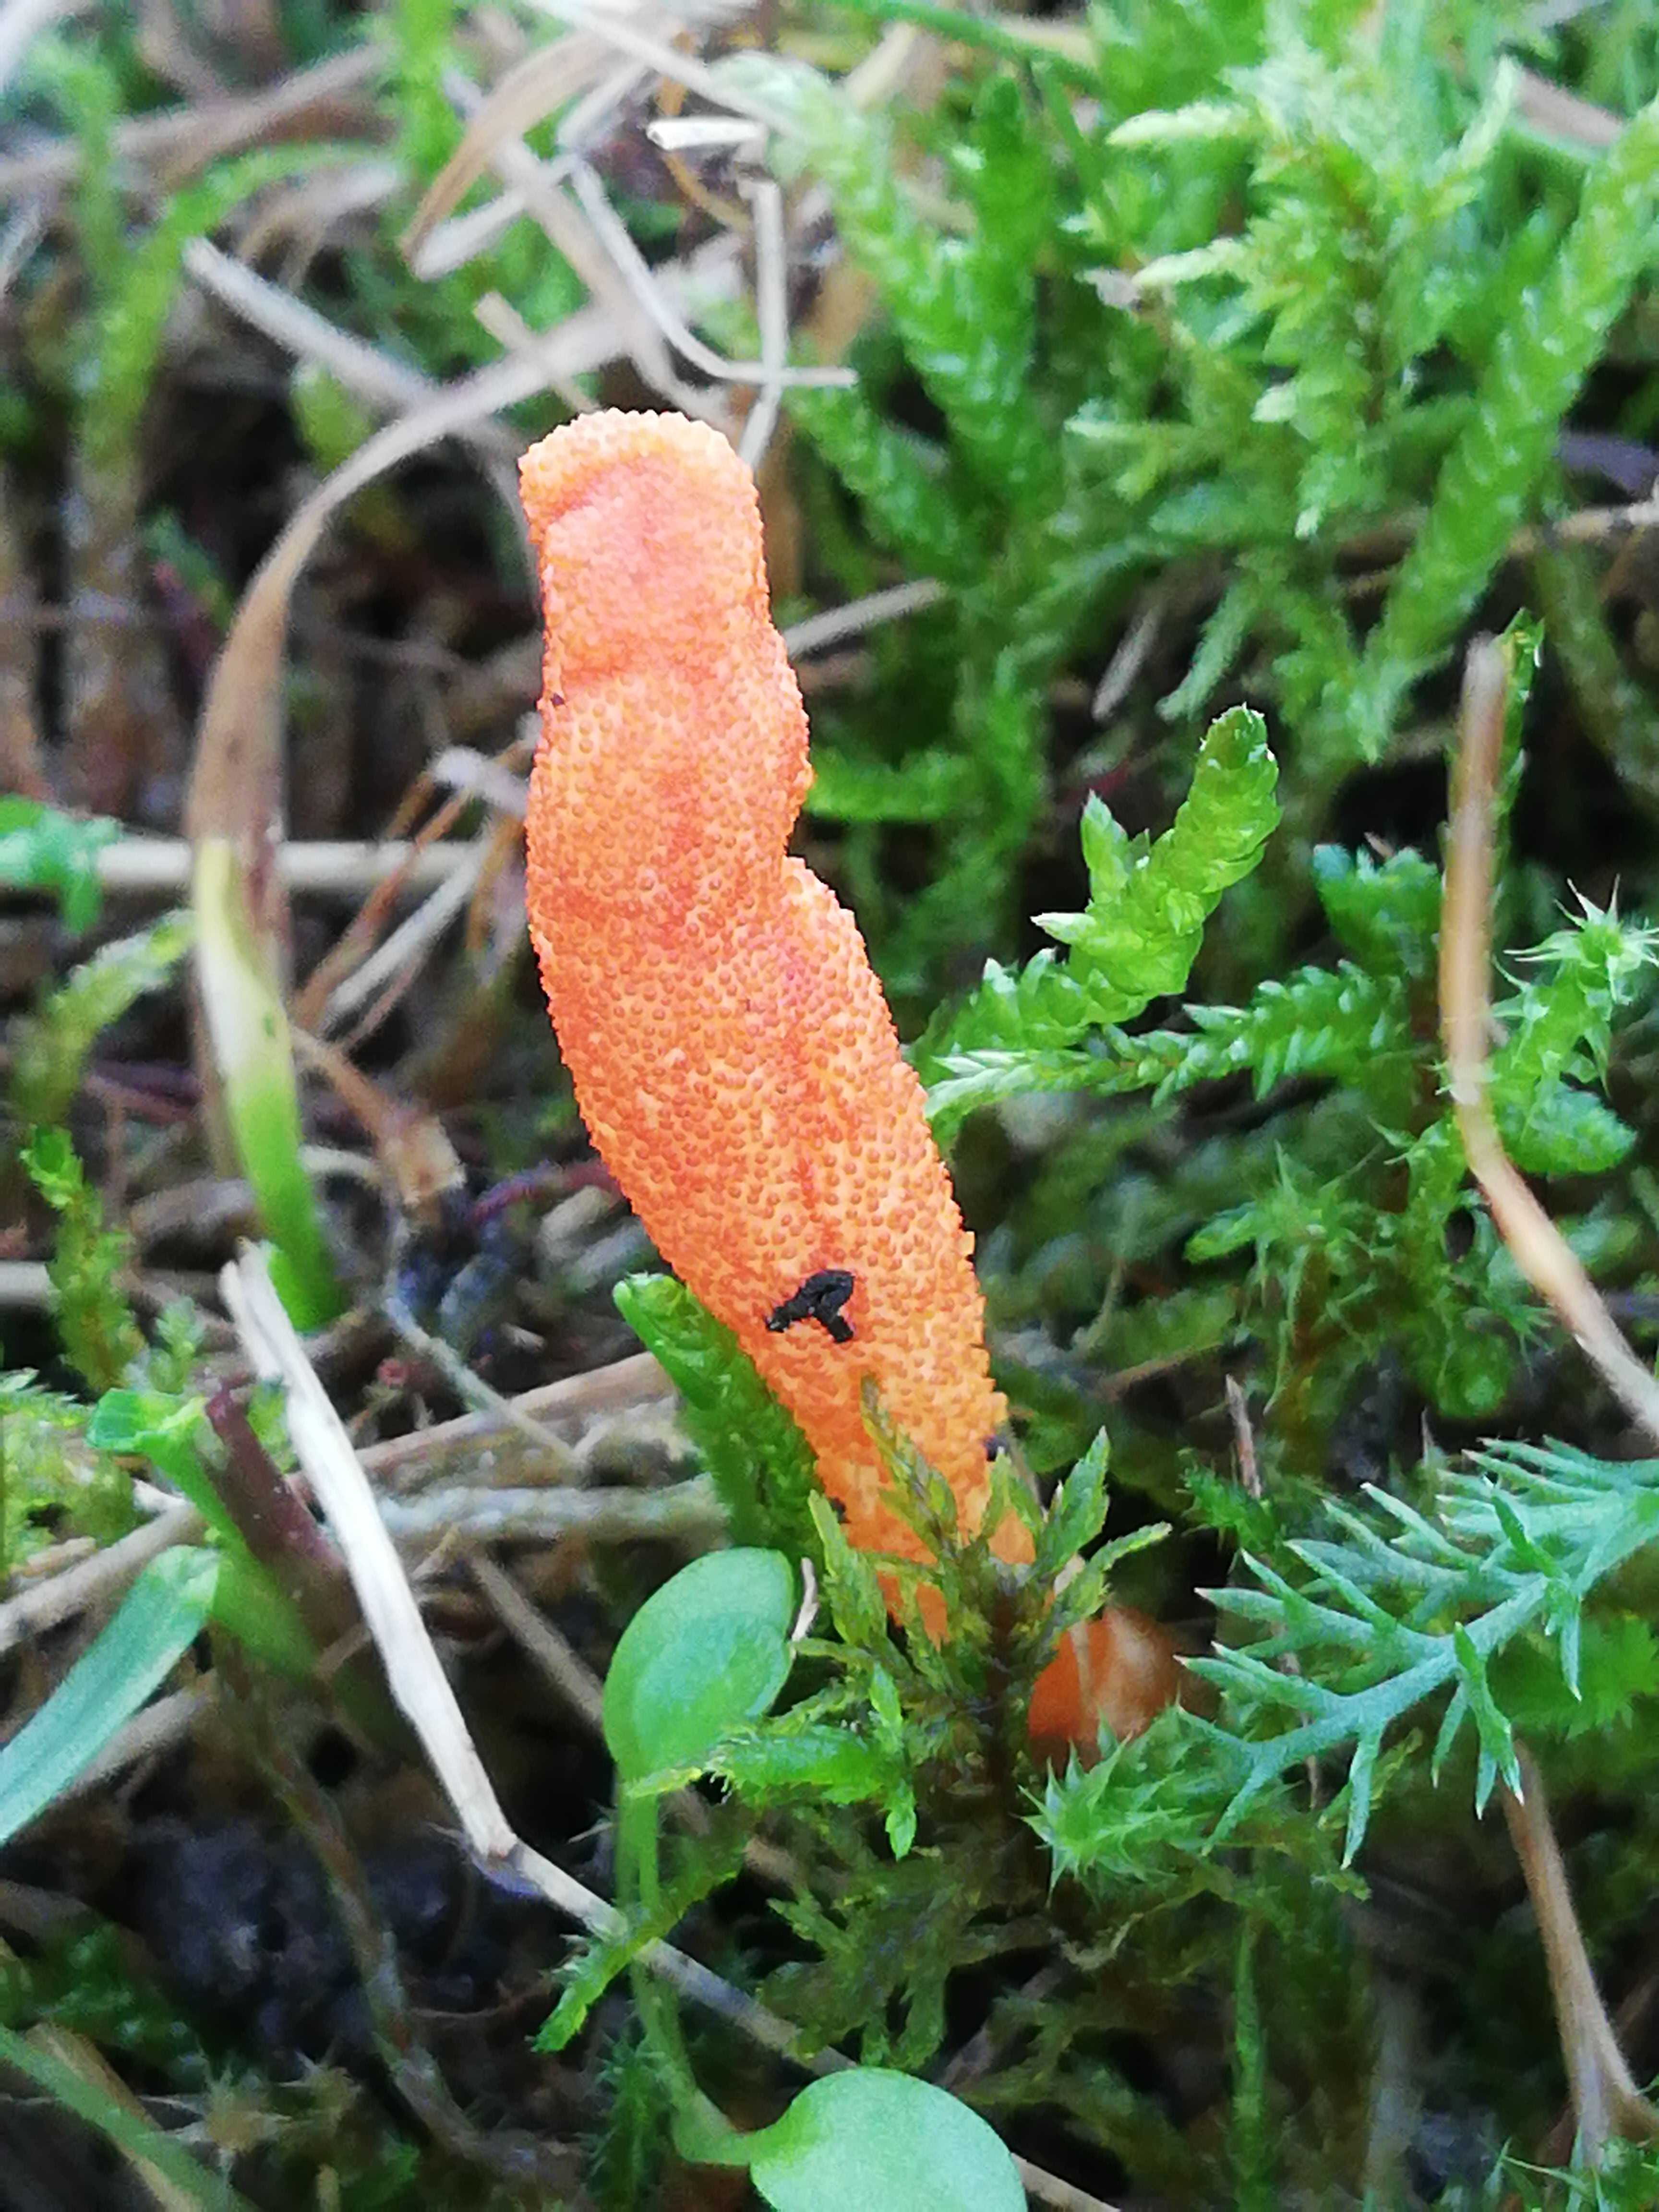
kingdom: Fungi
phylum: Ascomycota
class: Sordariomycetes
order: Hypocreales
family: Cordycipitaceae
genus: Cordyceps
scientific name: Cordyceps militaris
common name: puppe-snyltekølle
